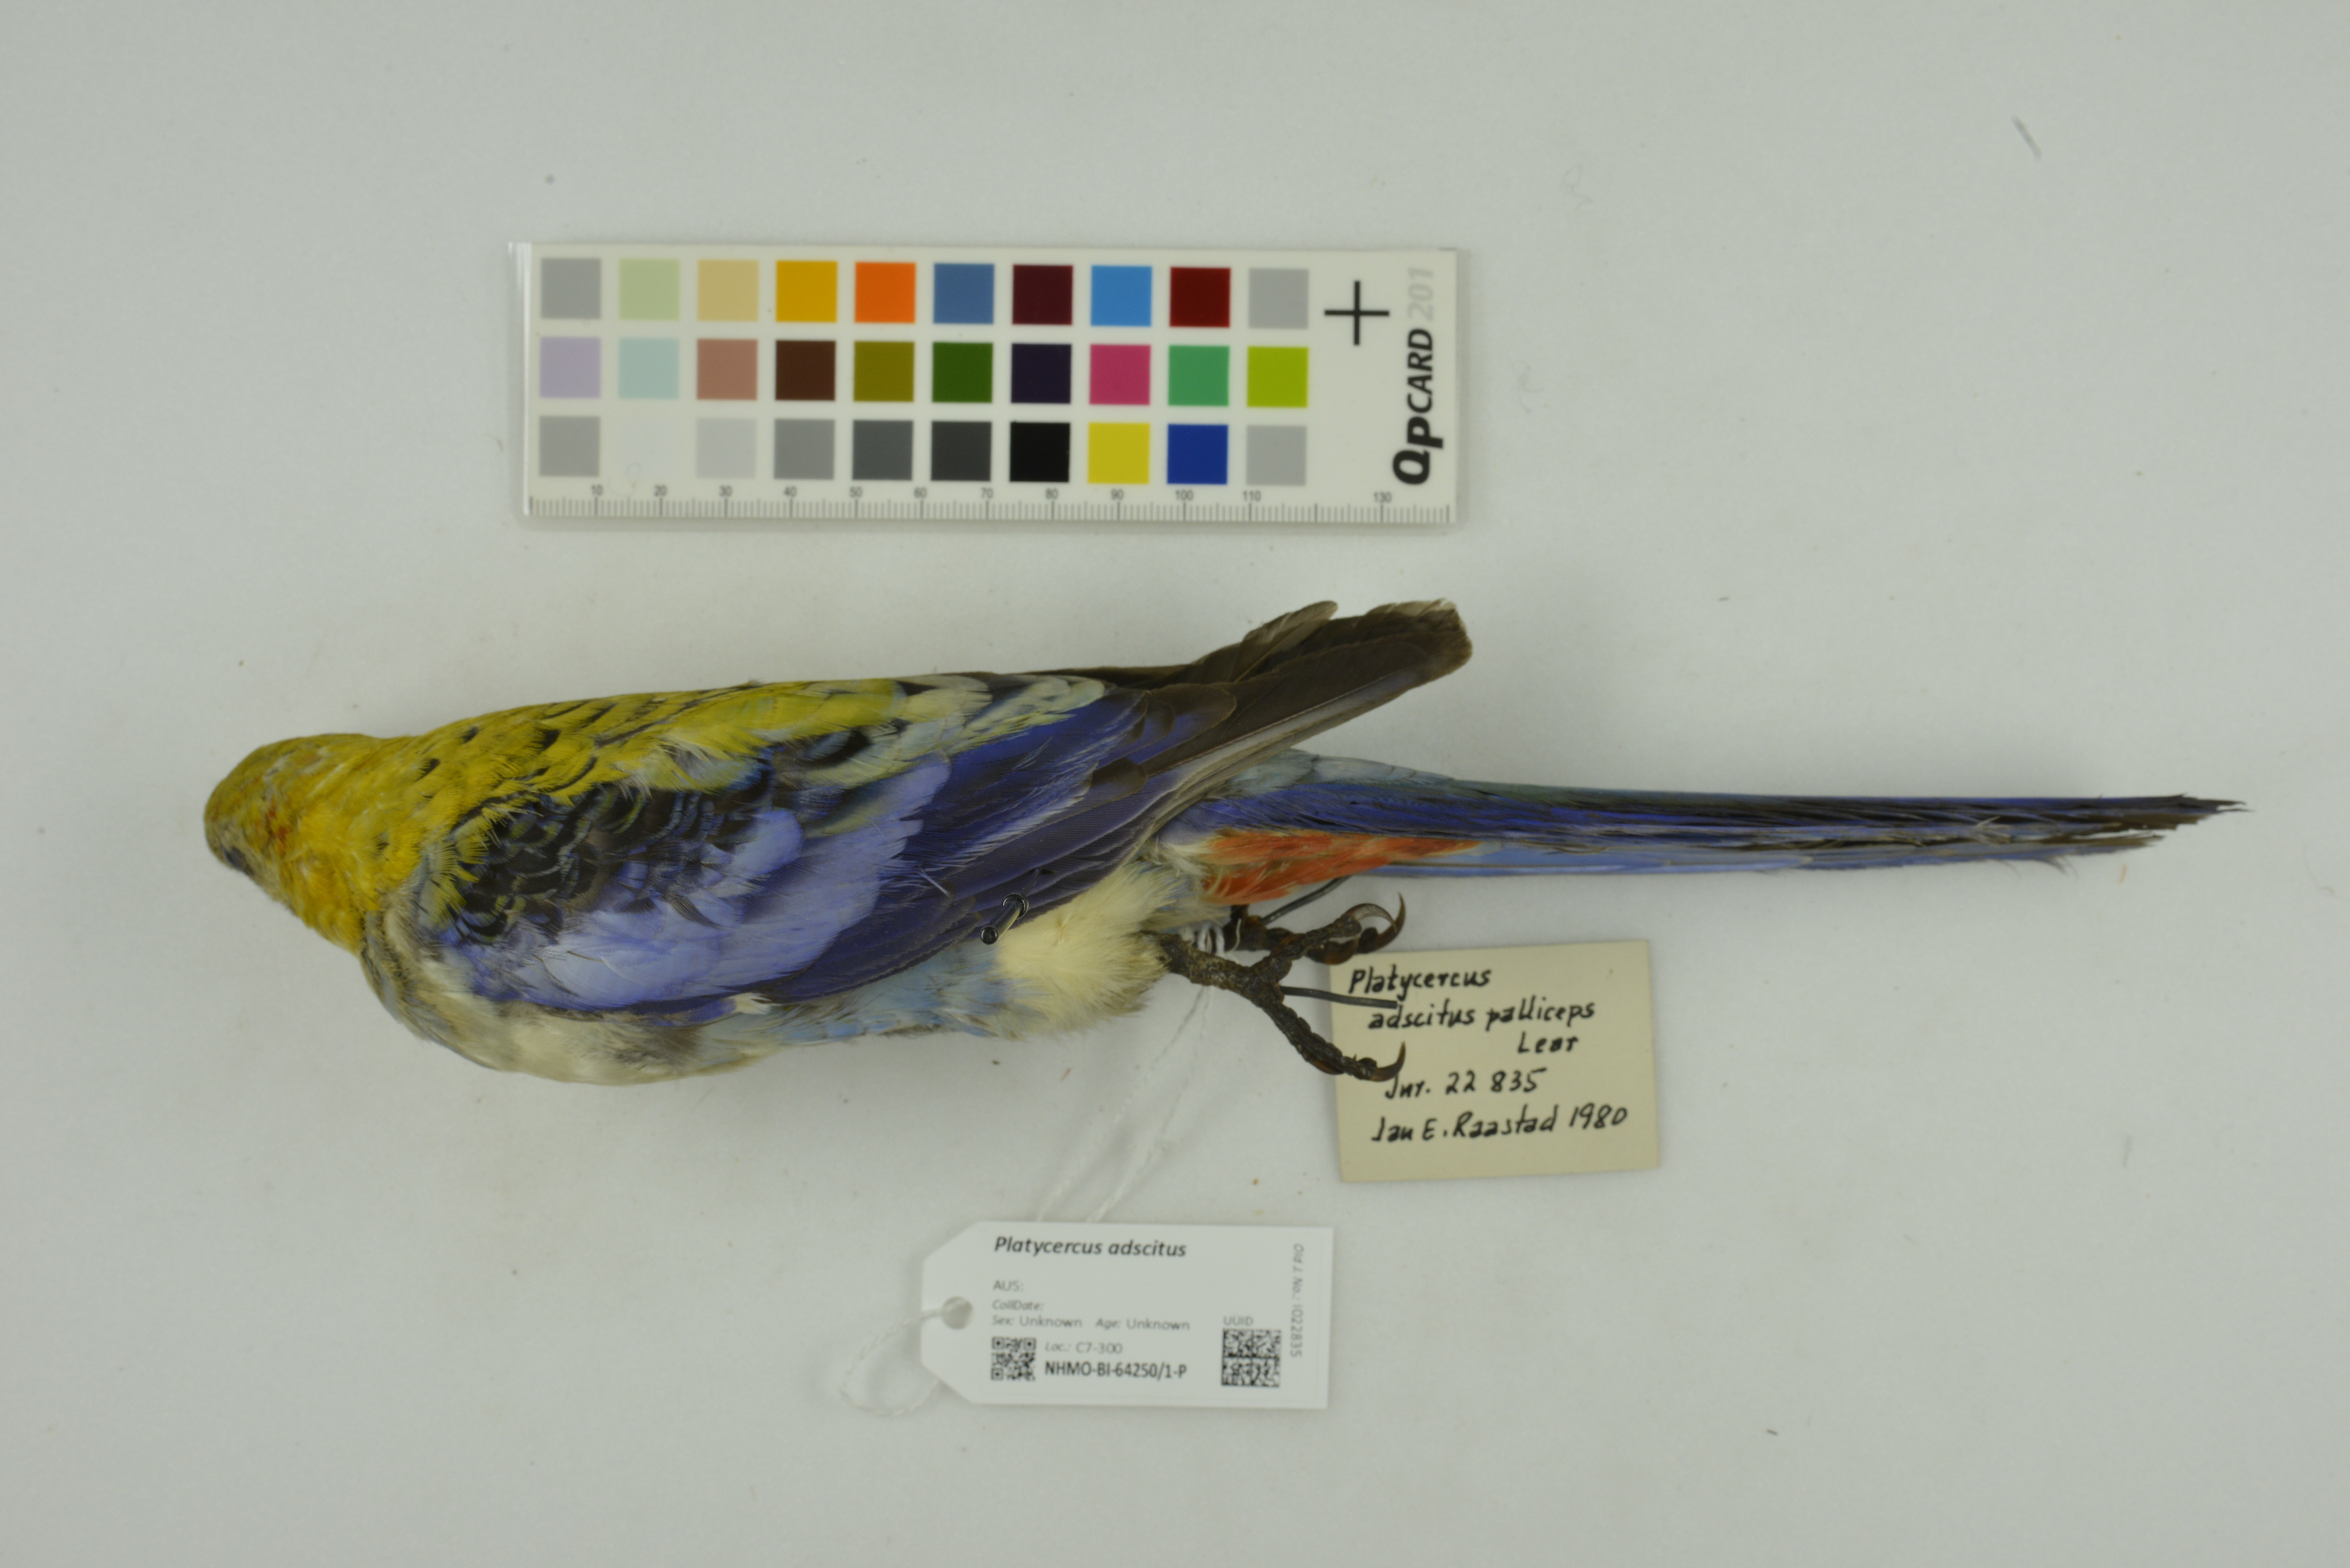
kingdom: Animalia
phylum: Chordata
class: Aves
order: Psittaciformes
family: Psittacidae
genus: Platycercus
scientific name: Platycercus adscitus
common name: Pale-headed rosella
